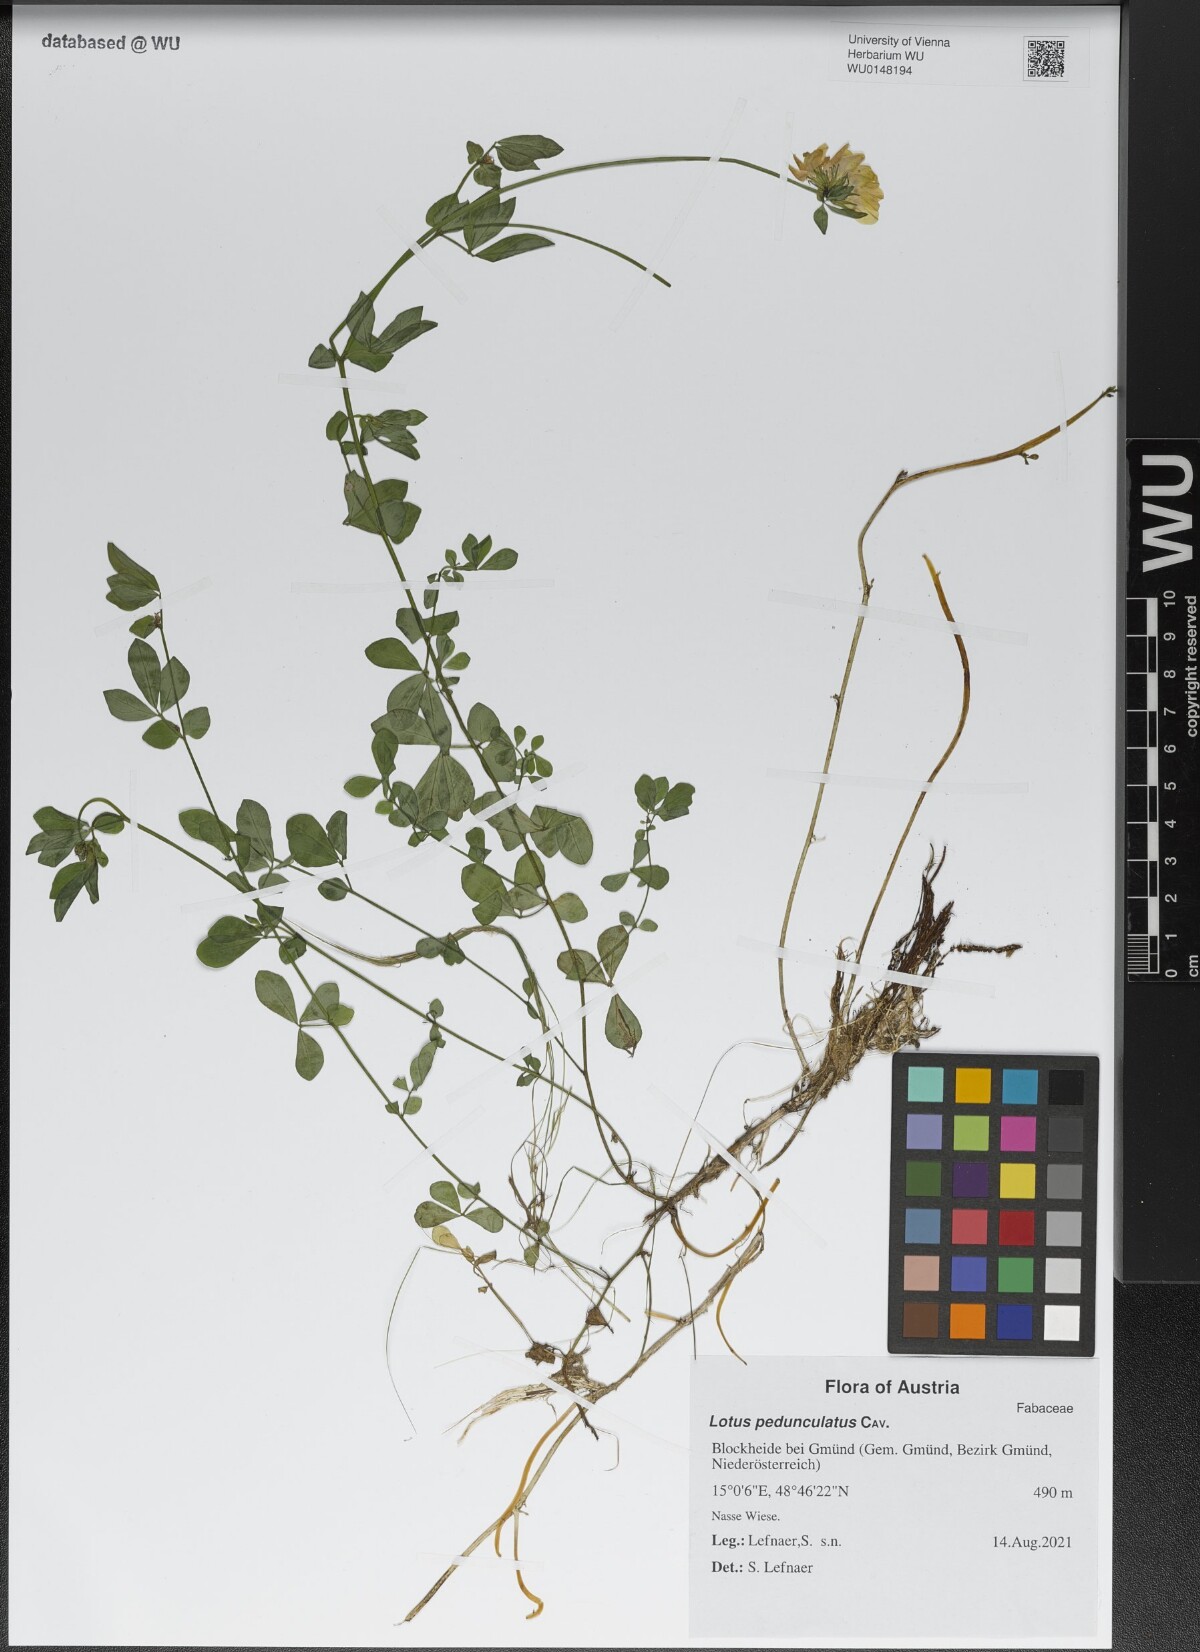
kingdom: Plantae
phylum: Tracheophyta
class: Magnoliopsida
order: Fabales
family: Fabaceae
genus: Lotus
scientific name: Lotus pedunculatus
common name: Greater birdsfoot-trefoil
